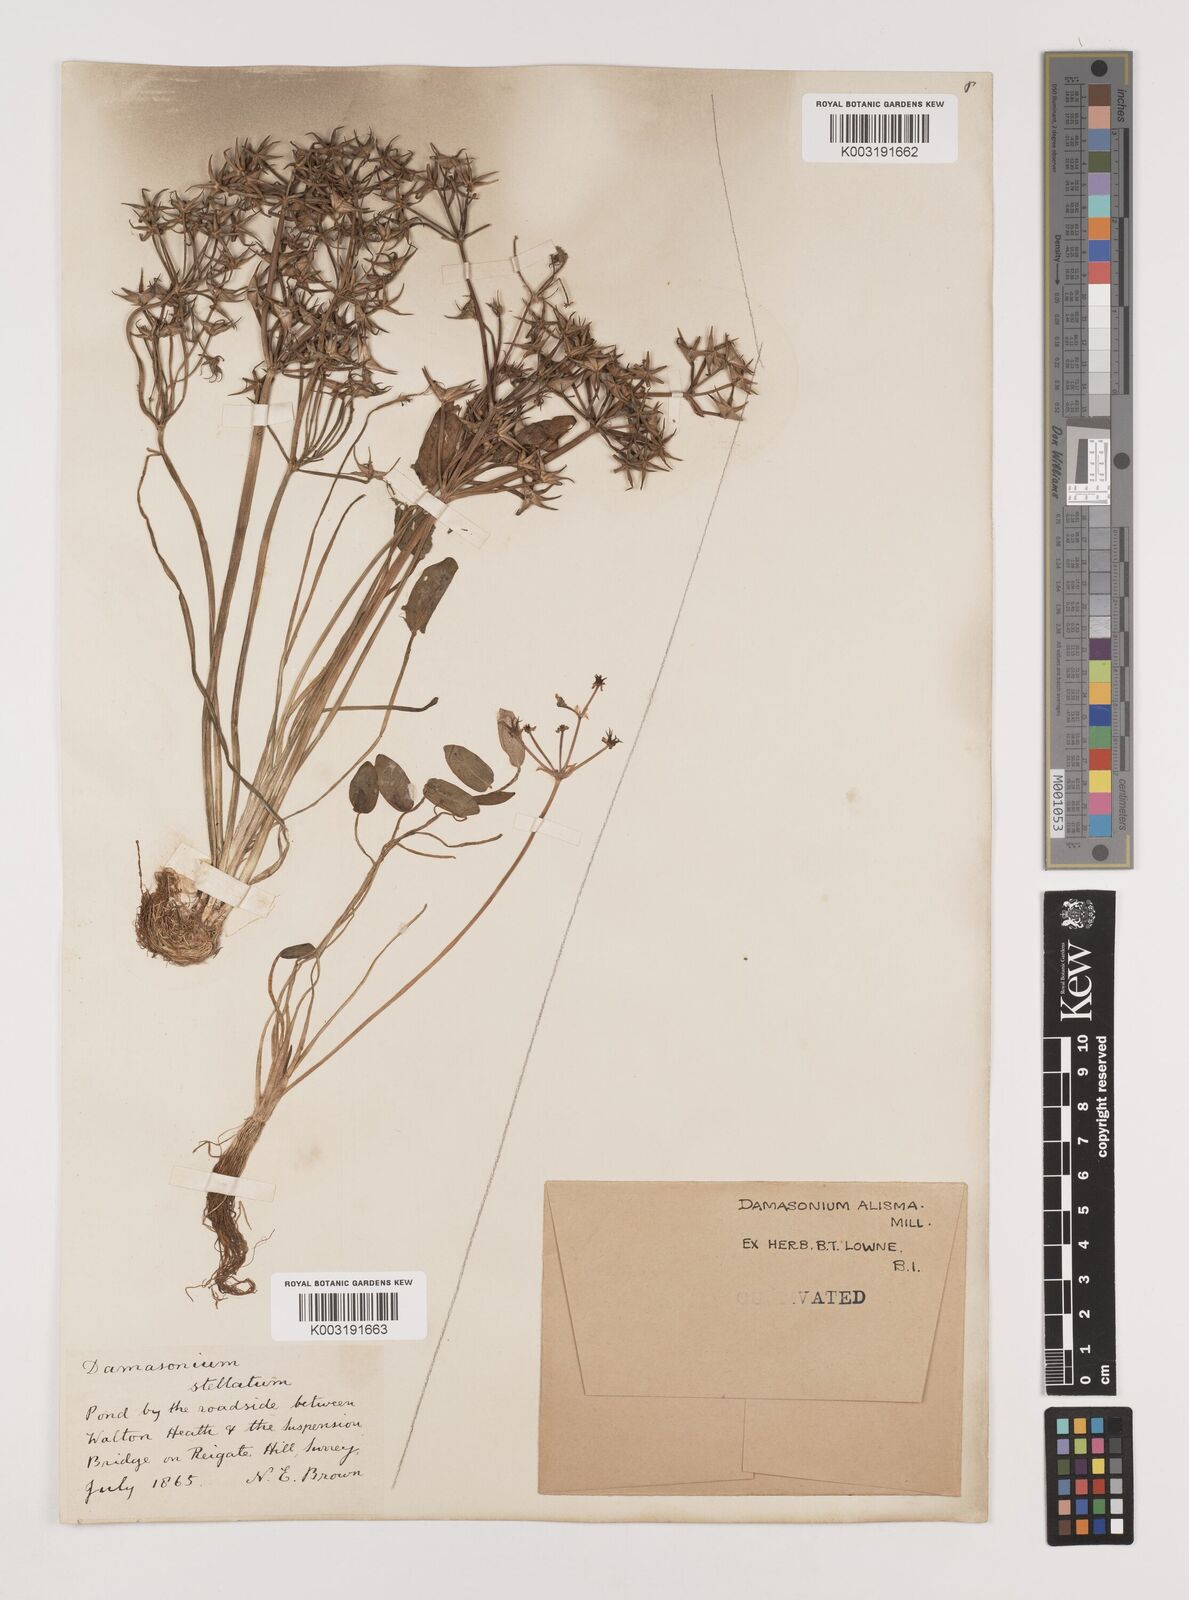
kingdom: Plantae
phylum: Tracheophyta
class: Liliopsida
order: Alismatales
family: Alismataceae
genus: Damasonium
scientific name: Damasonium alisma
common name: Starfruit
